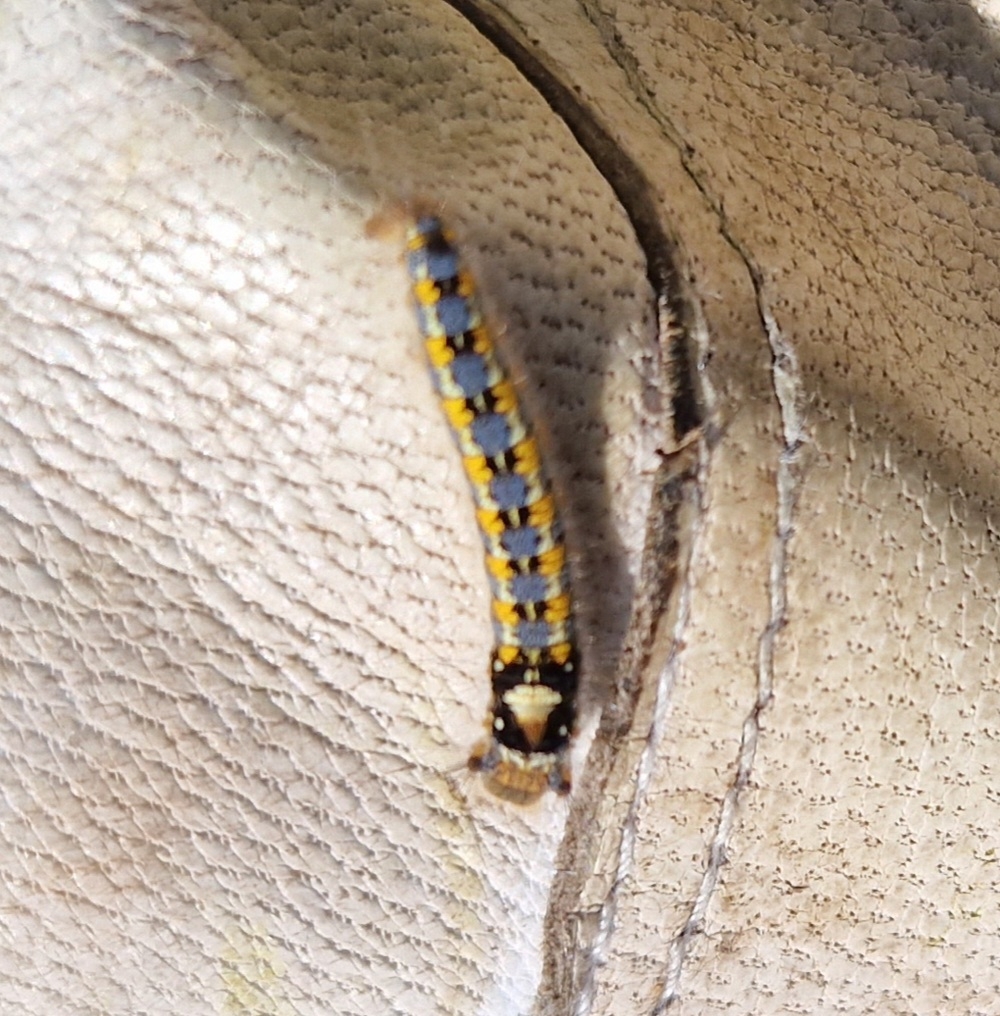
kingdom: Animalia
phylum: Arthropoda
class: Insecta
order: Lepidoptera
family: Lasiocampidae
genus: Euthrix
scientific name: Euthrix potatoria
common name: Græsspinder
